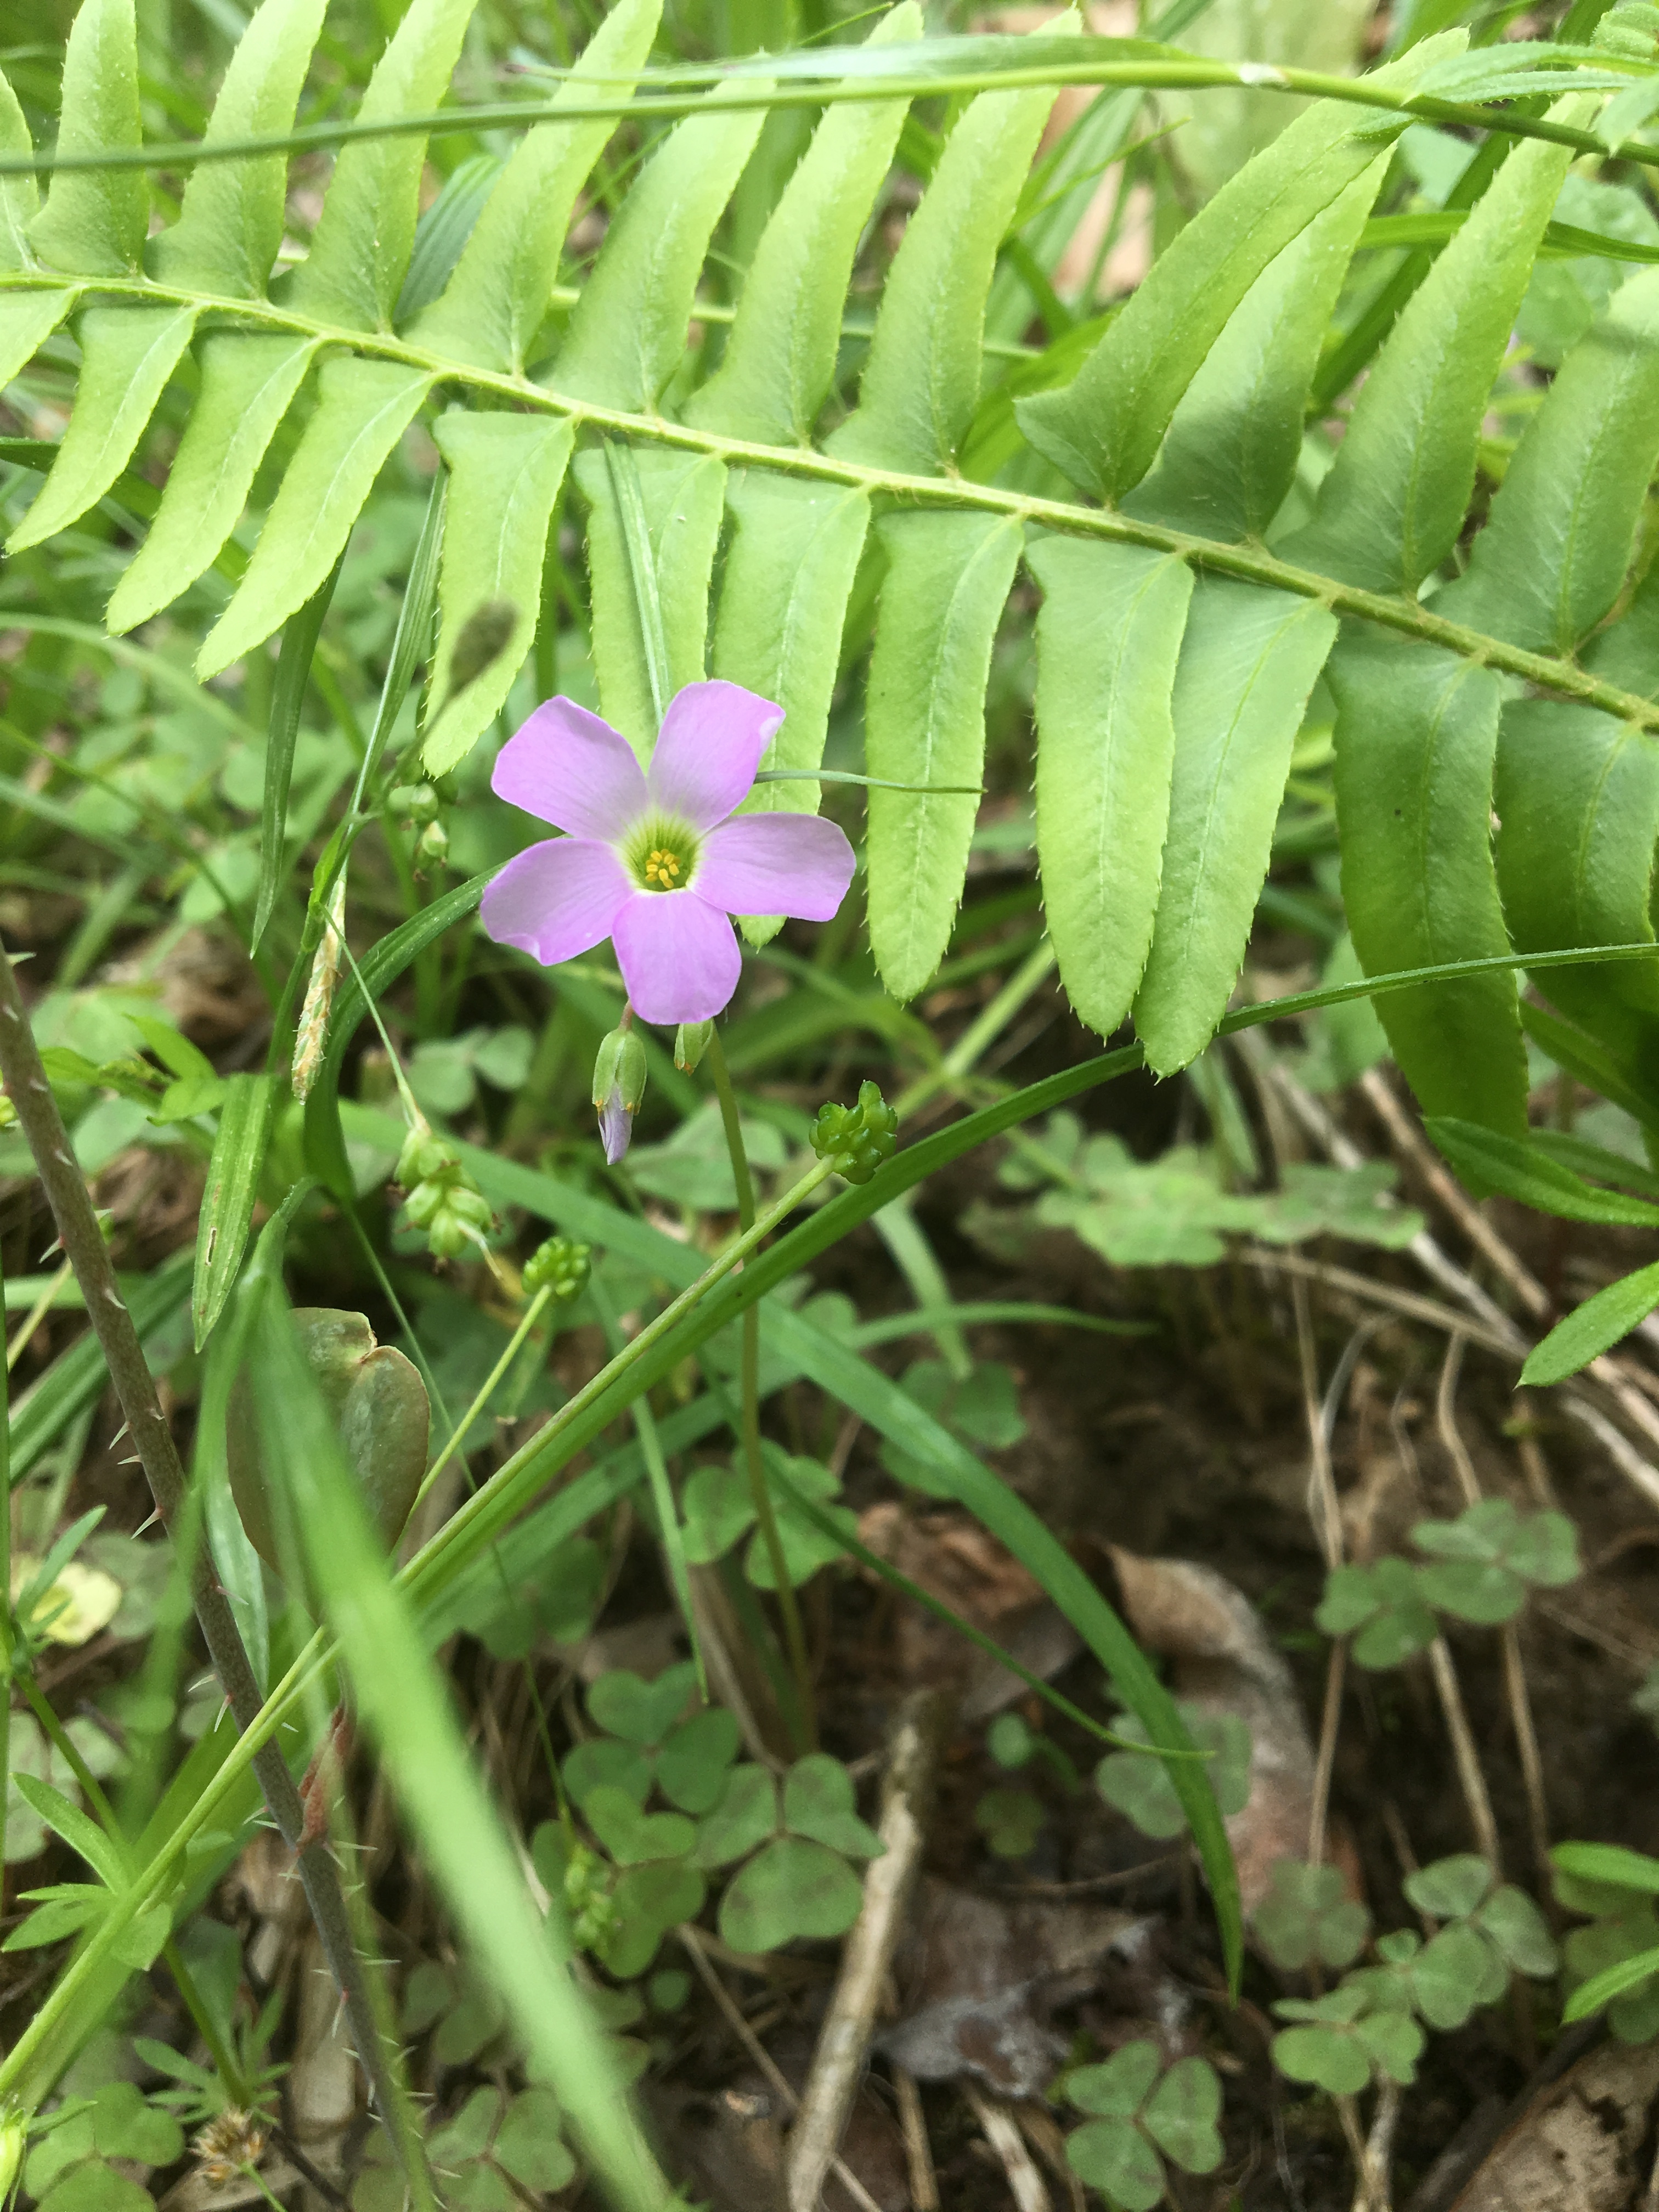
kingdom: Plantae
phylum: Tracheophyta
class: Magnoliopsida
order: Oxalidales
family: Oxalidaceae
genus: Oxalis
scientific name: Oxalis violacea
